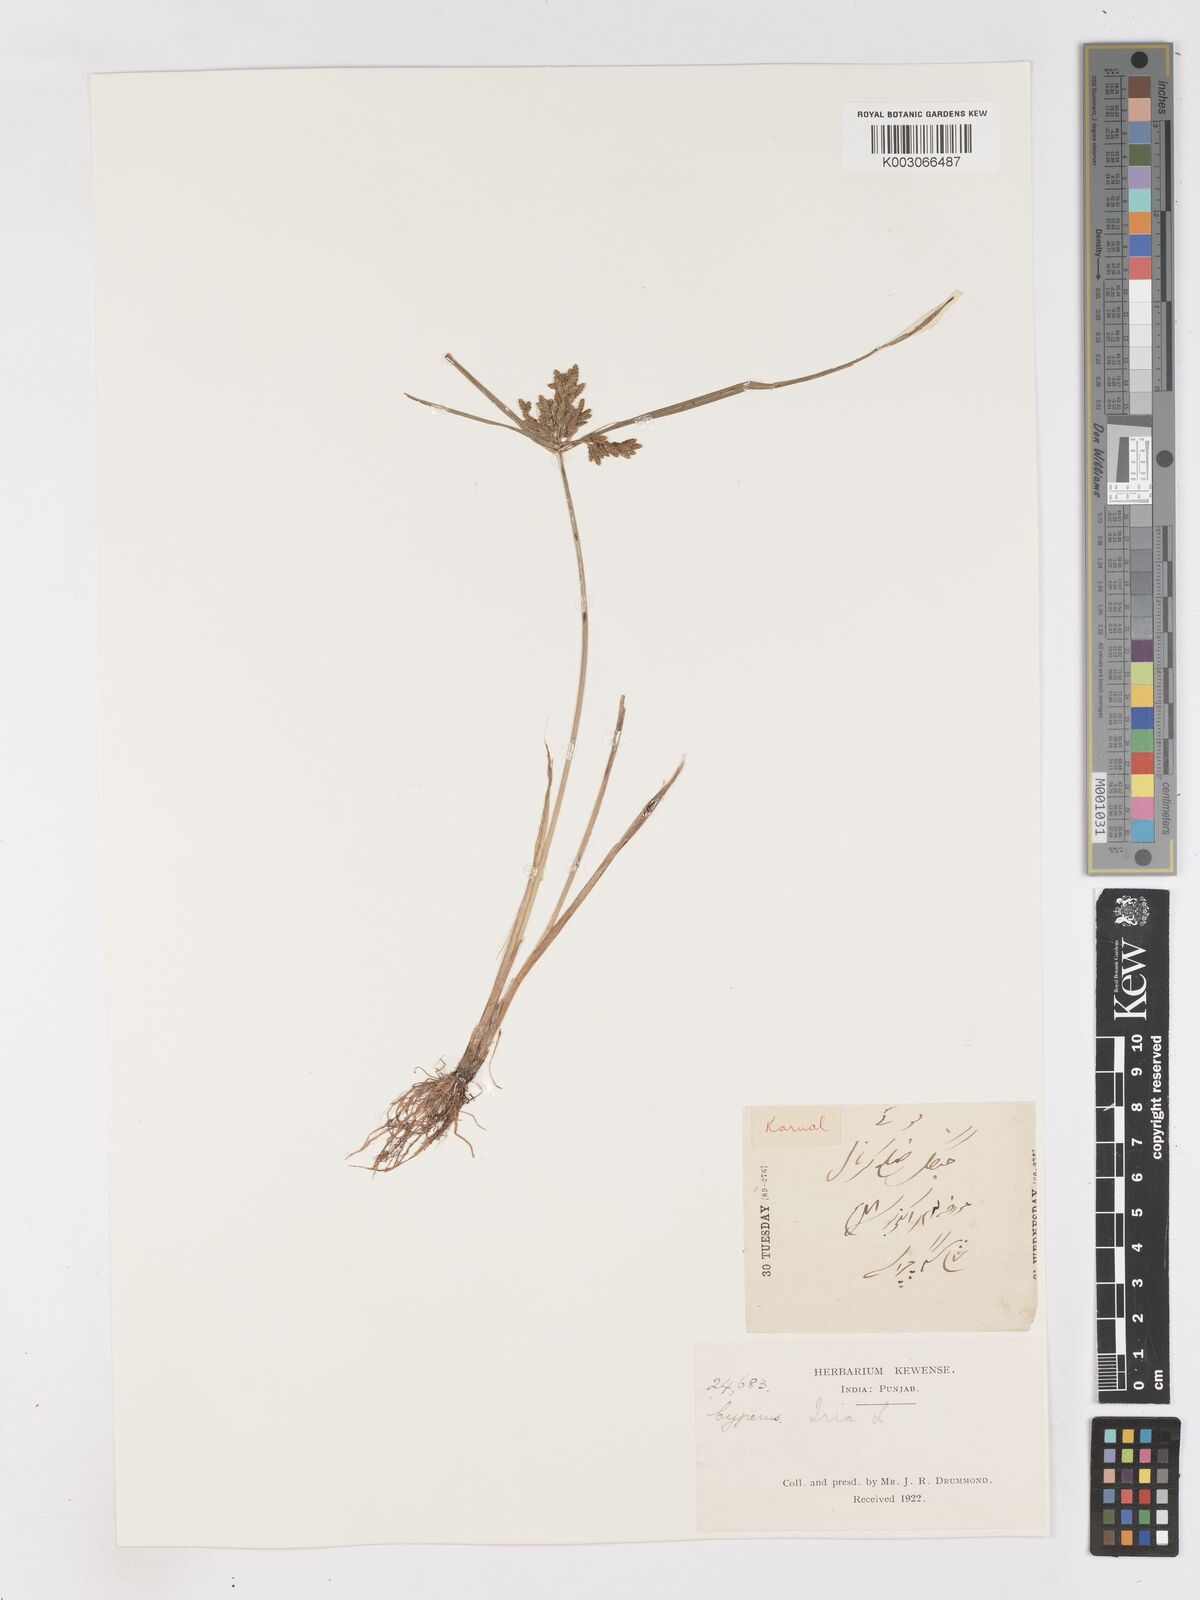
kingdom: Plantae
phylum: Tracheophyta
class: Liliopsida
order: Poales
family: Cyperaceae
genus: Cyperus
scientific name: Cyperus iria
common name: Ricefield flatsedge
